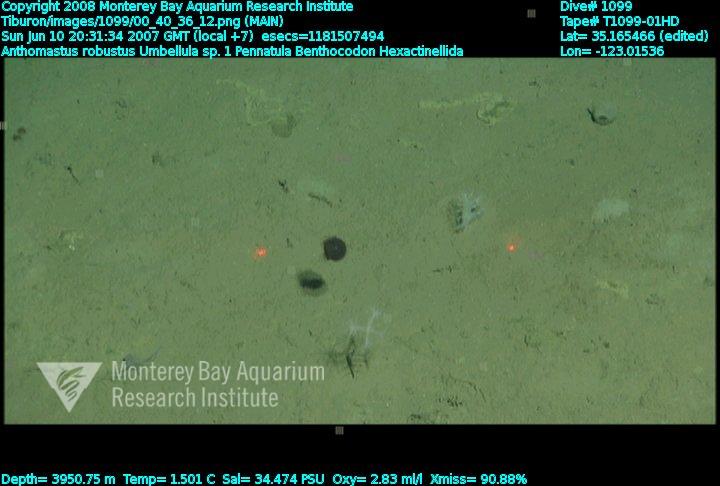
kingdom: Animalia
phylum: Porifera
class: Hexactinellida
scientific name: Hexactinellida
